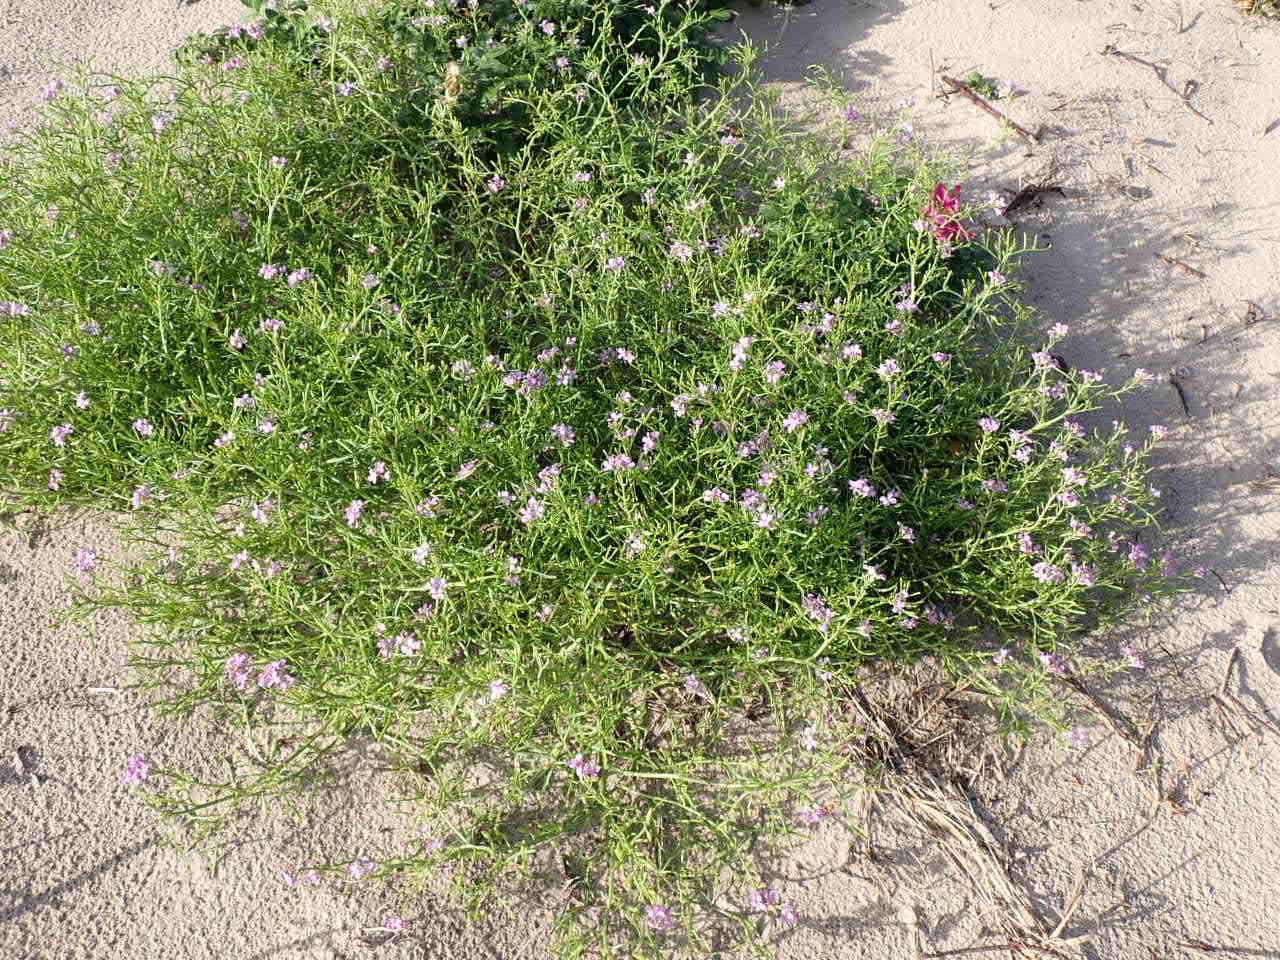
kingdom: Plantae
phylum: Tracheophyta
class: Magnoliopsida
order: Brassicales
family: Brassicaceae
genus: Cakile
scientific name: Cakile maritima
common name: Østersø-strandsennep
